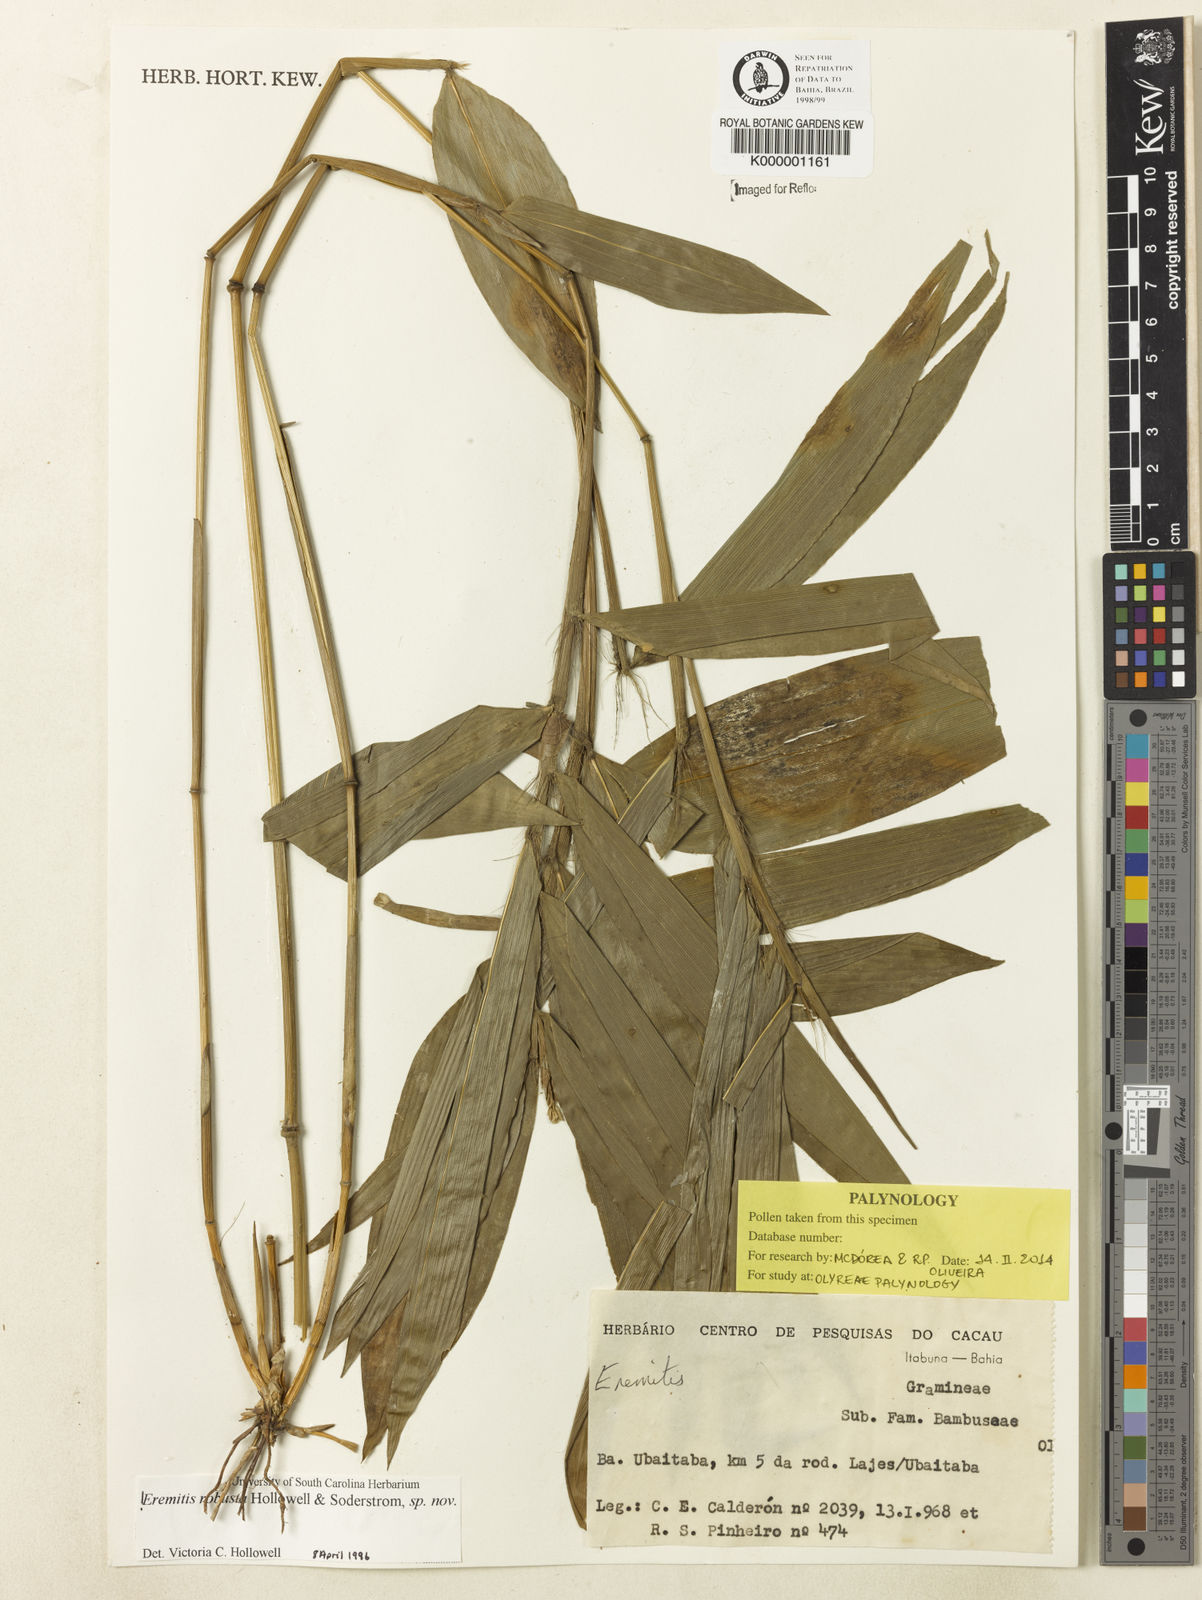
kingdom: Plantae
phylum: Tracheophyta
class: Liliopsida
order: Poales
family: Poaceae
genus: Eremitis
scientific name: Eremitis
